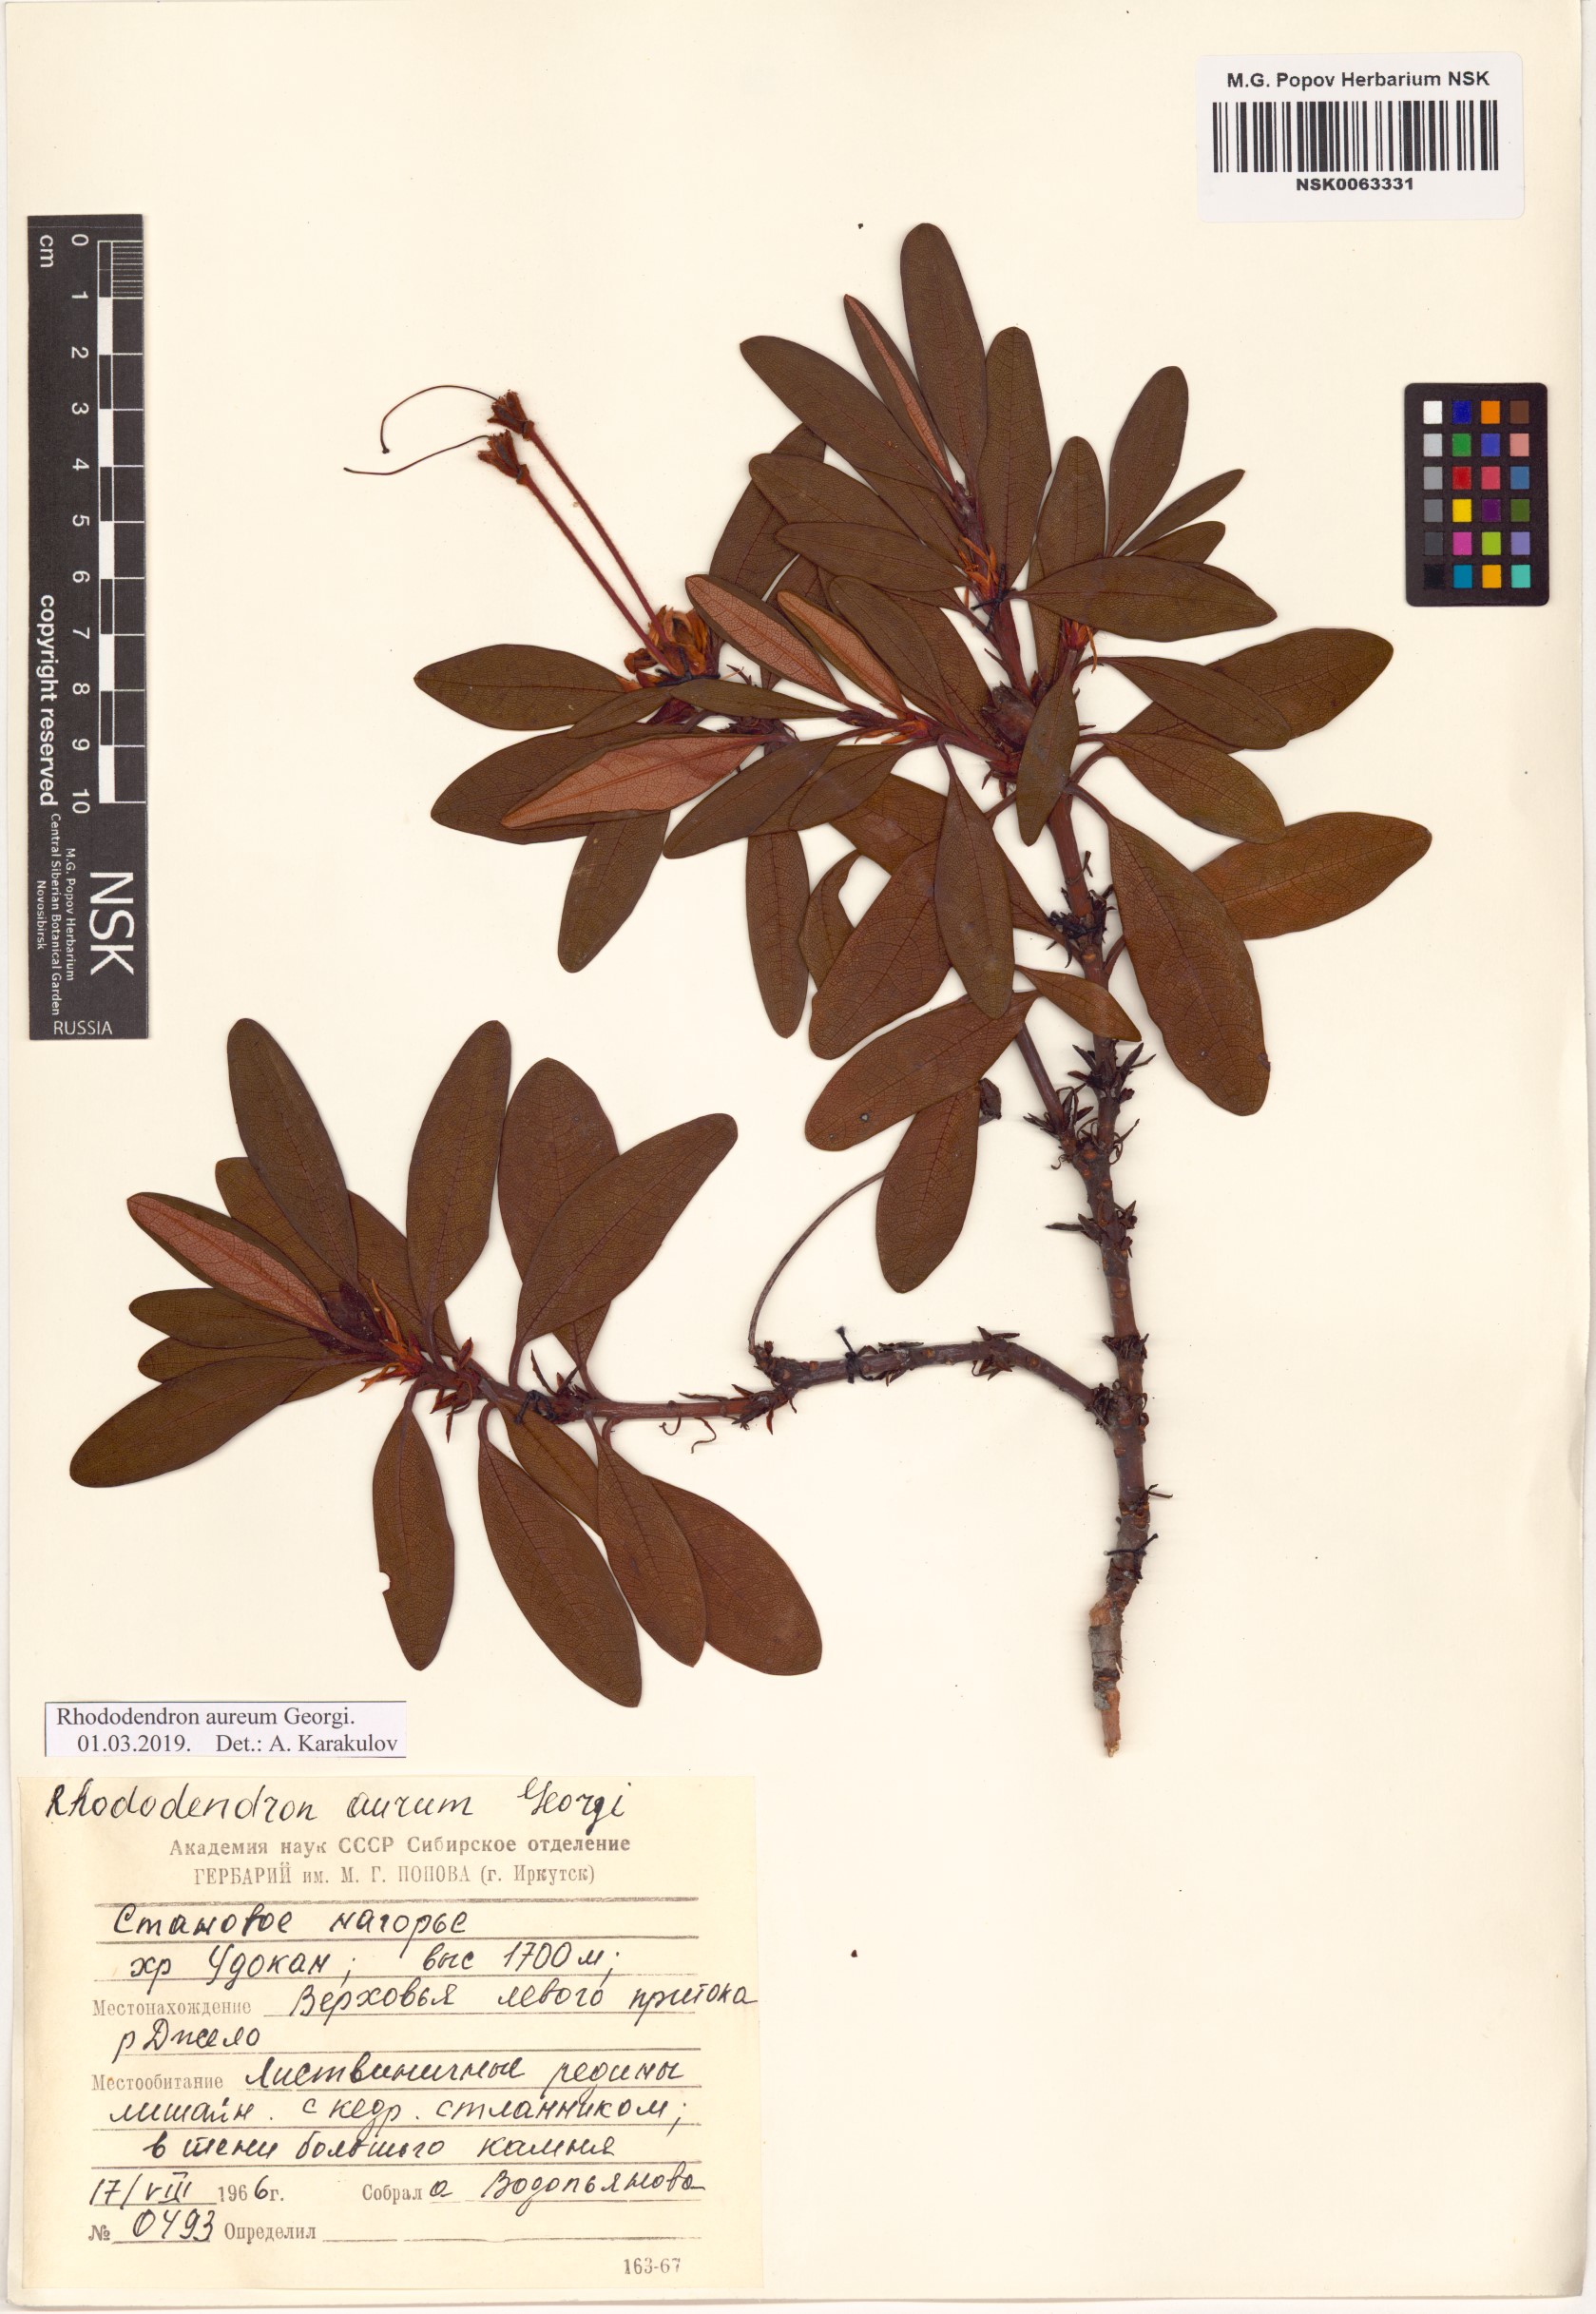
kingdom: Plantae
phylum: Tracheophyta
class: Magnoliopsida
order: Ericales
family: Ericaceae
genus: Rhododendron
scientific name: Rhododendron aureum
